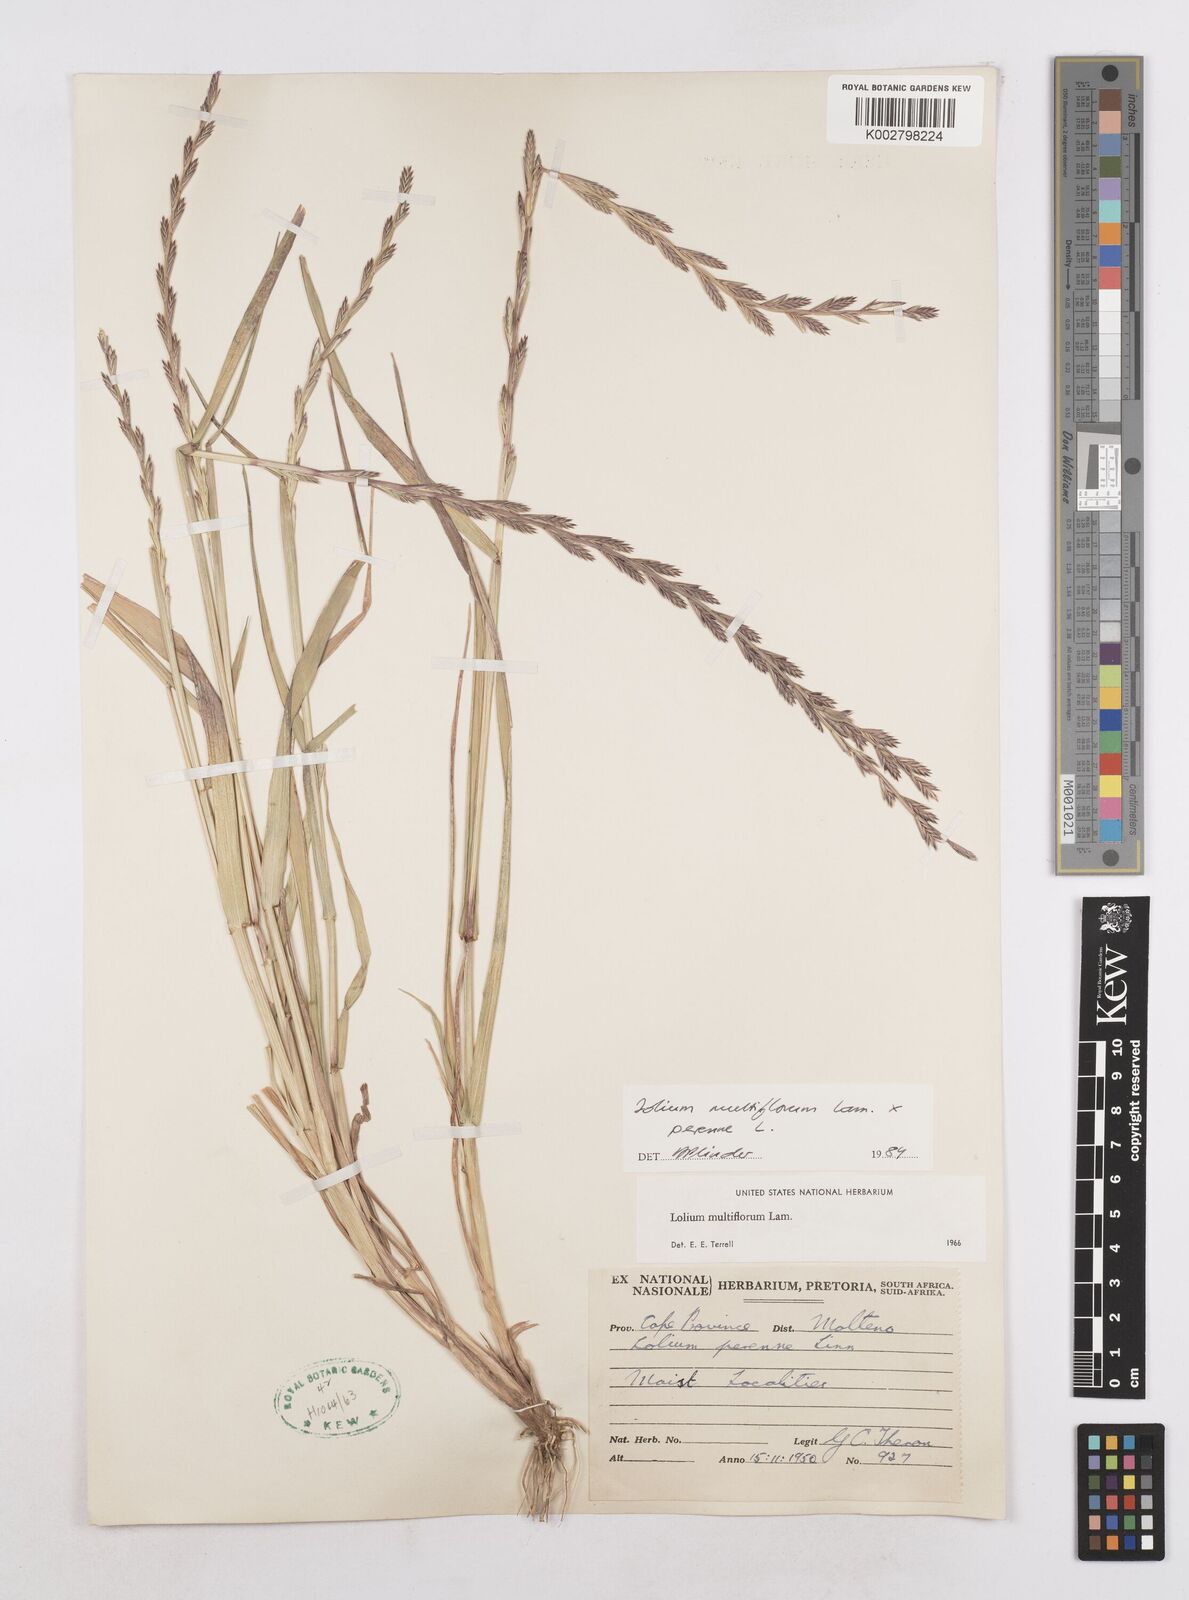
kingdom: Plantae
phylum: Tracheophyta
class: Liliopsida
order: Poales
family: Poaceae
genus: Lolium
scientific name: Lolium multiflorum
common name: Annual ryegrass
